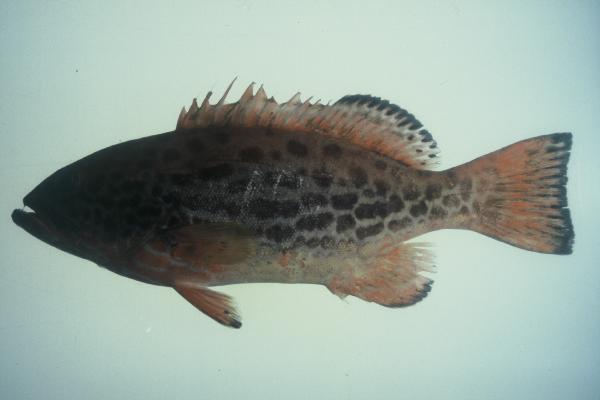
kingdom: Animalia
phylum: Chordata
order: Perciformes
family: Serranidae
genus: Mycteroperca
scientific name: Mycteroperca venenosa
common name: Yellowfin grouper
